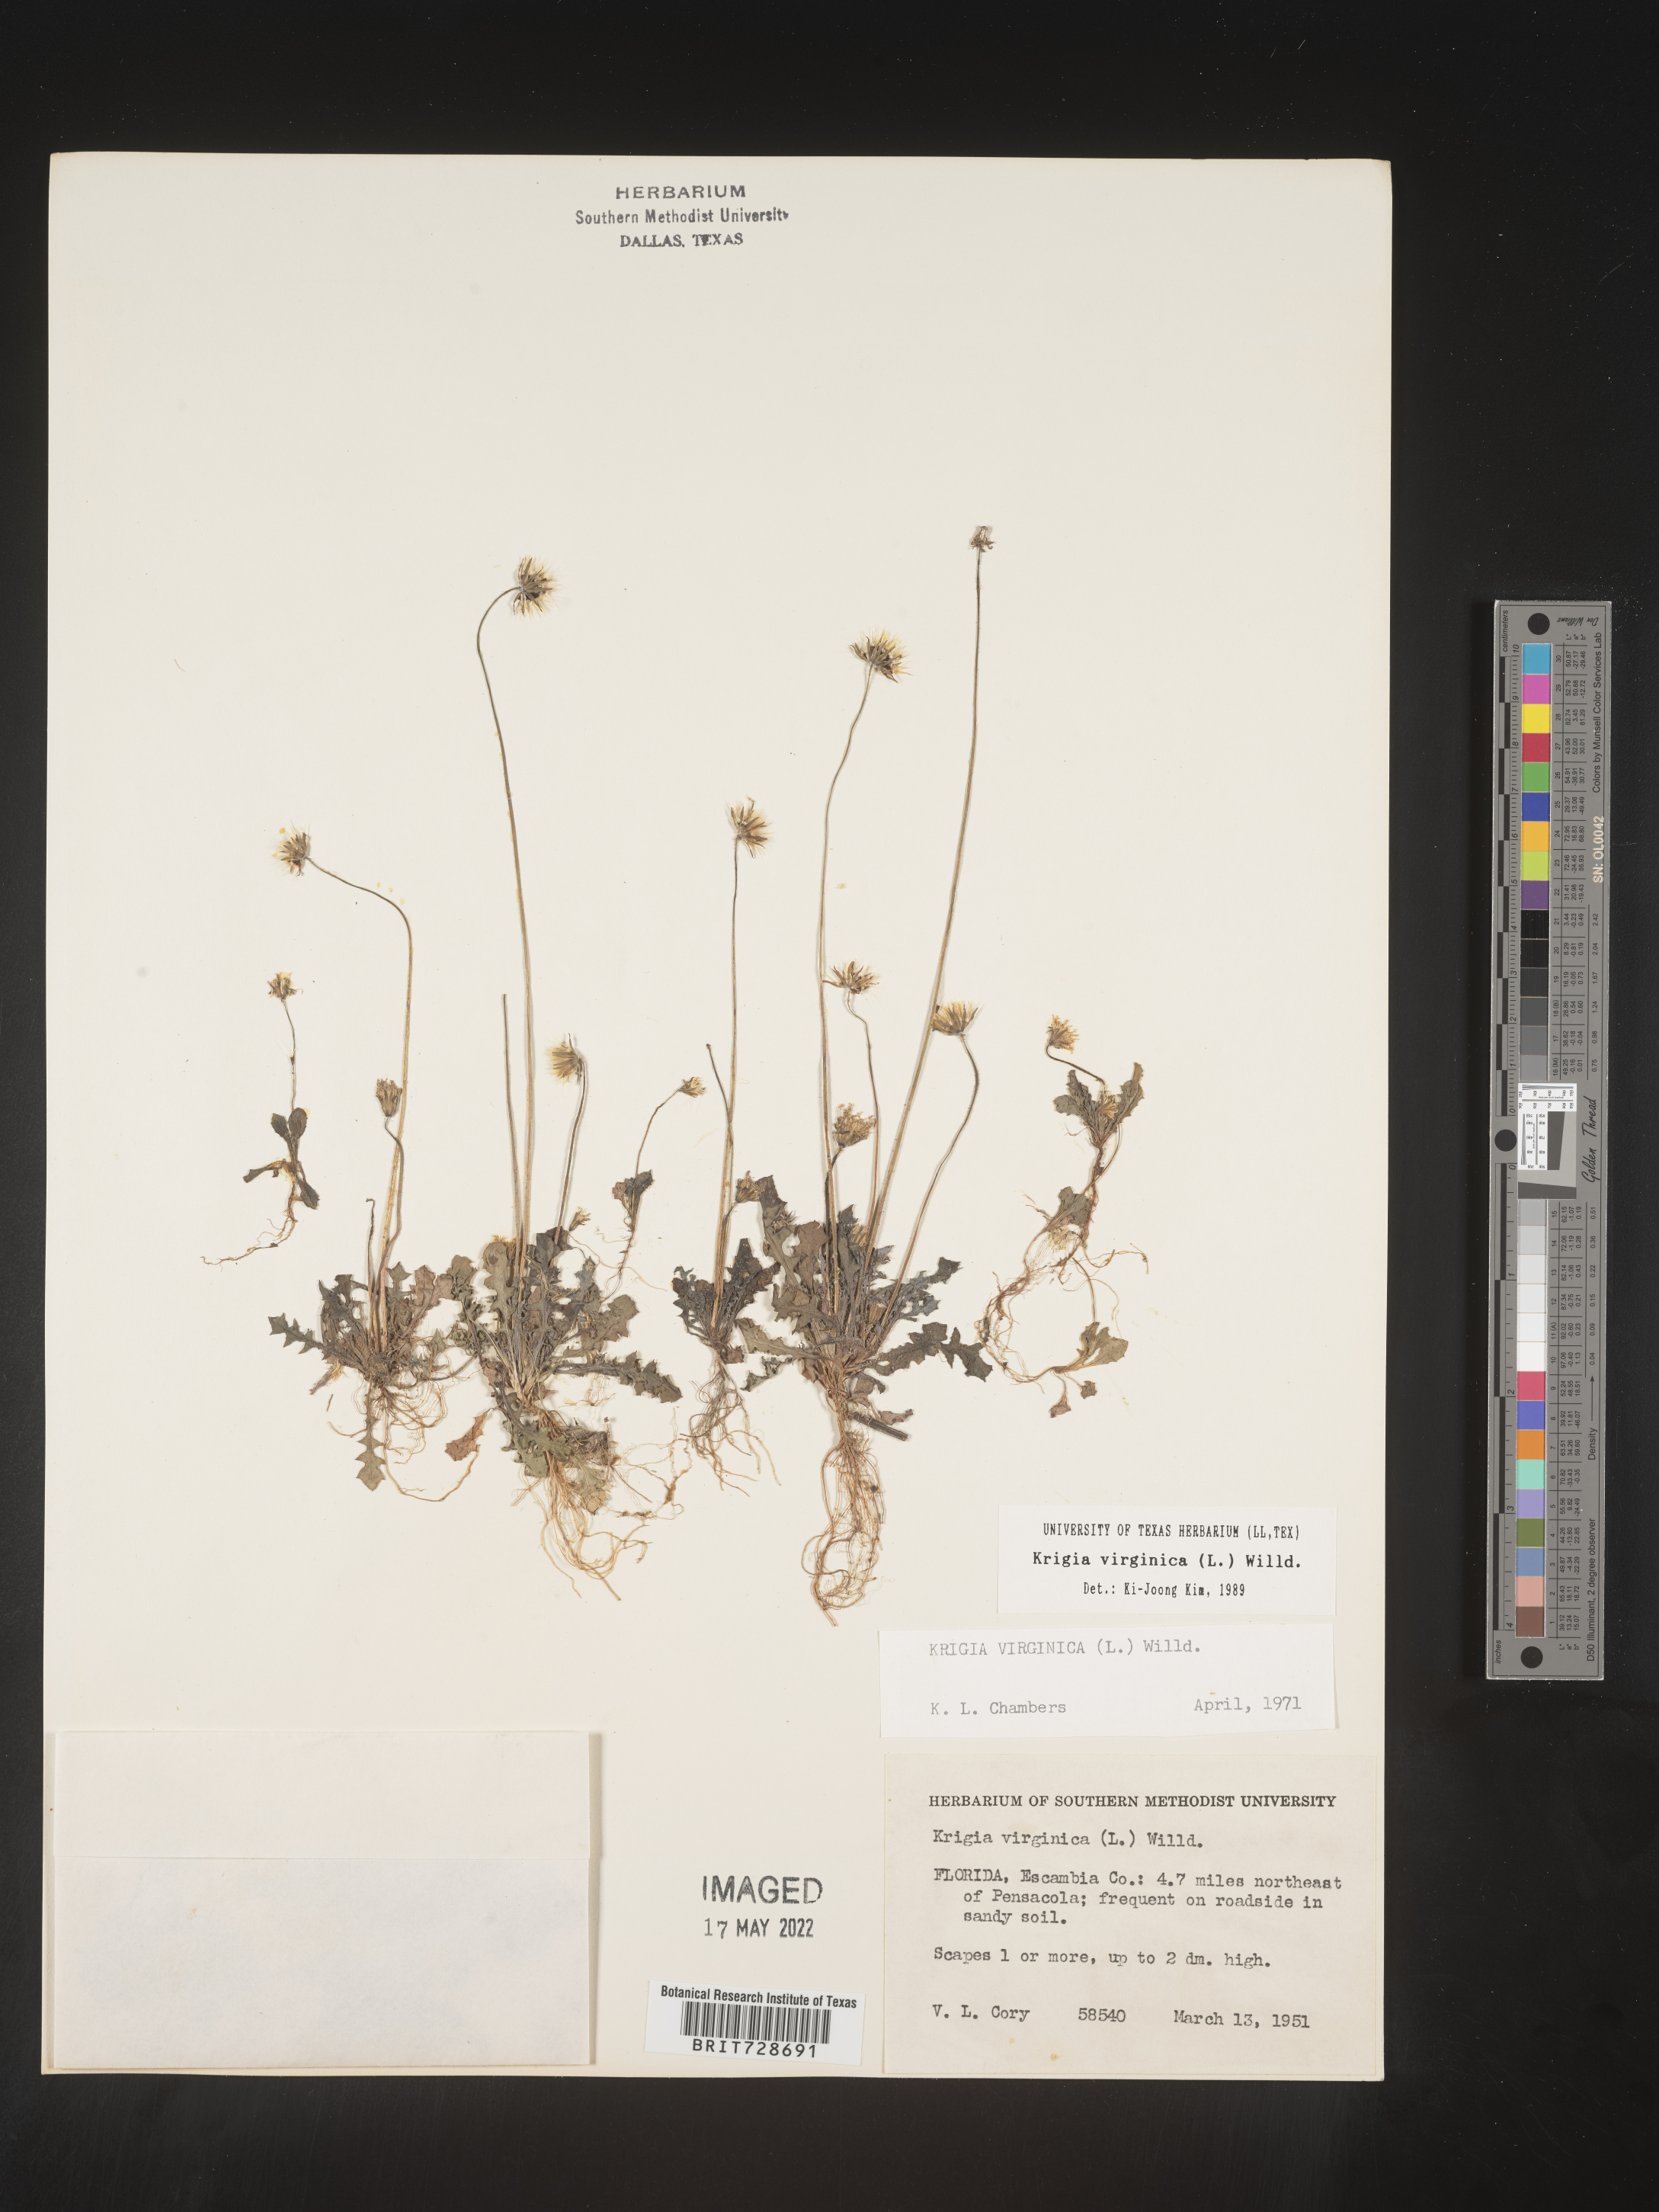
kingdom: Plantae
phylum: Tracheophyta
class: Magnoliopsida
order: Asterales
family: Asteraceae
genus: Krigia
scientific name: Krigia virginica
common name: Virginia dwarf-dandelion
